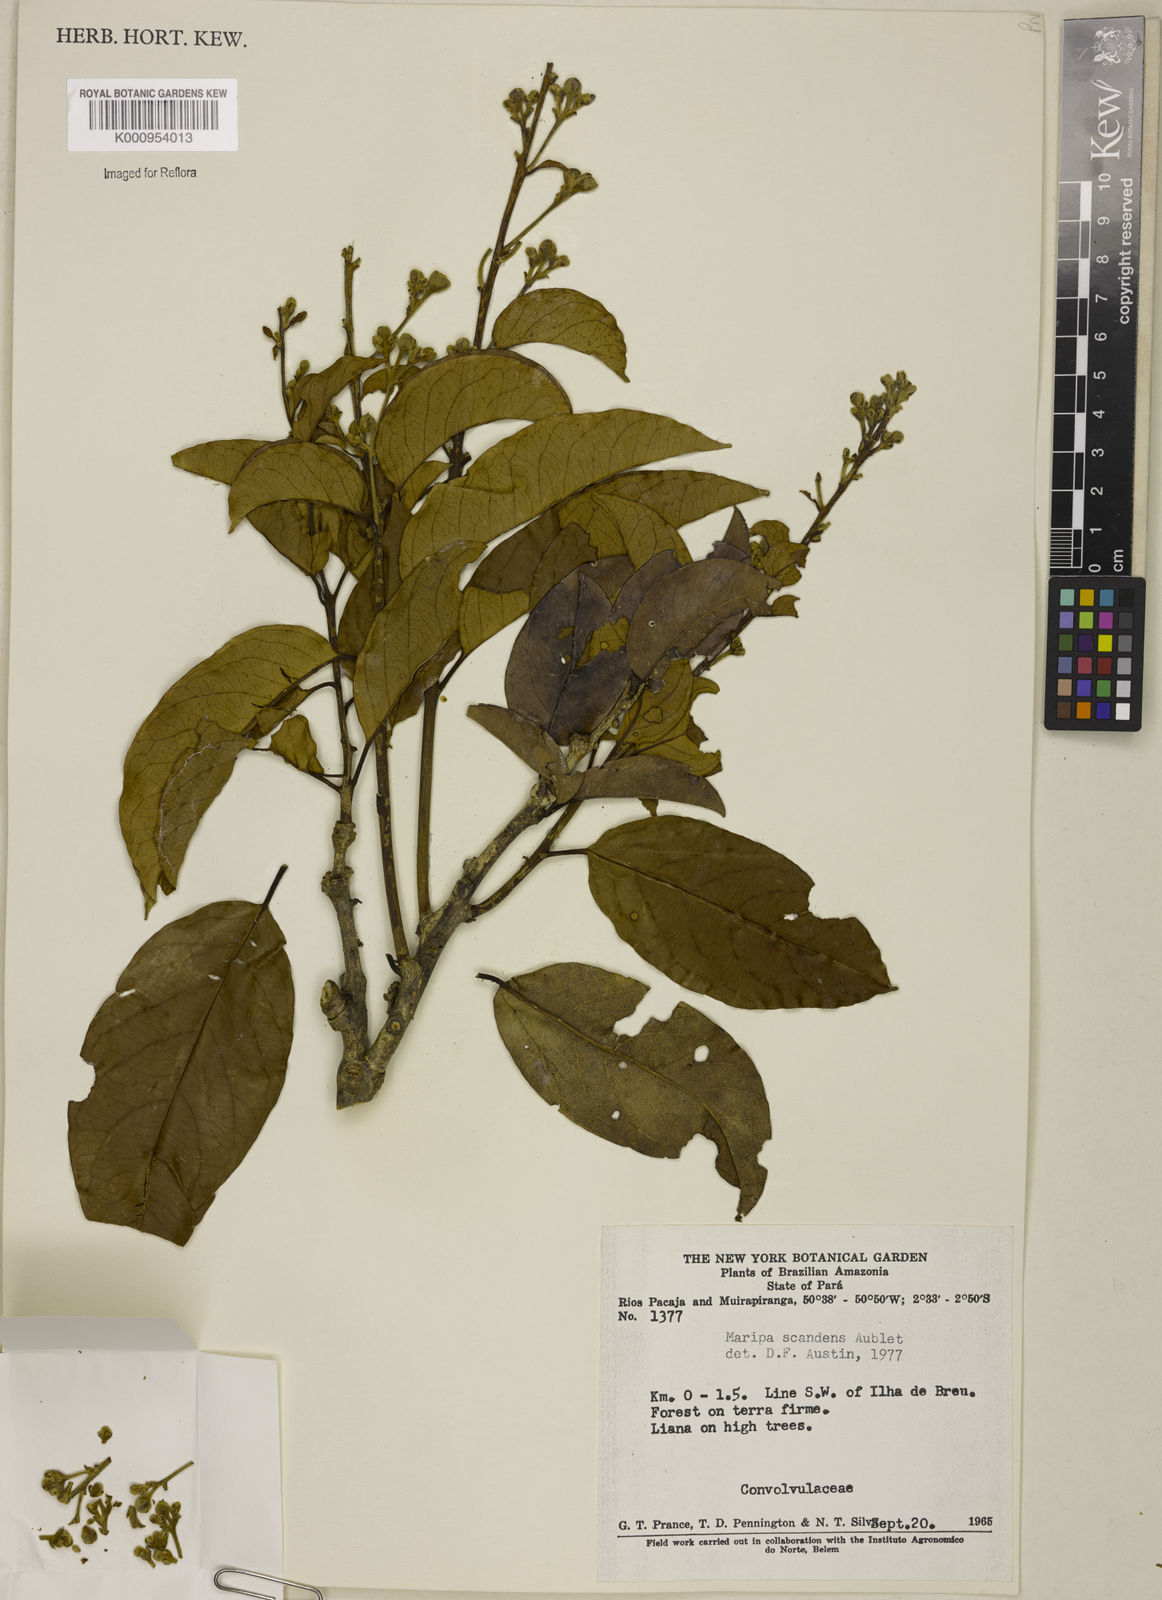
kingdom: Plantae
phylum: Tracheophyta
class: Magnoliopsida
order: Solanales
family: Convolvulaceae
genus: Maripa
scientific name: Maripa scandens
